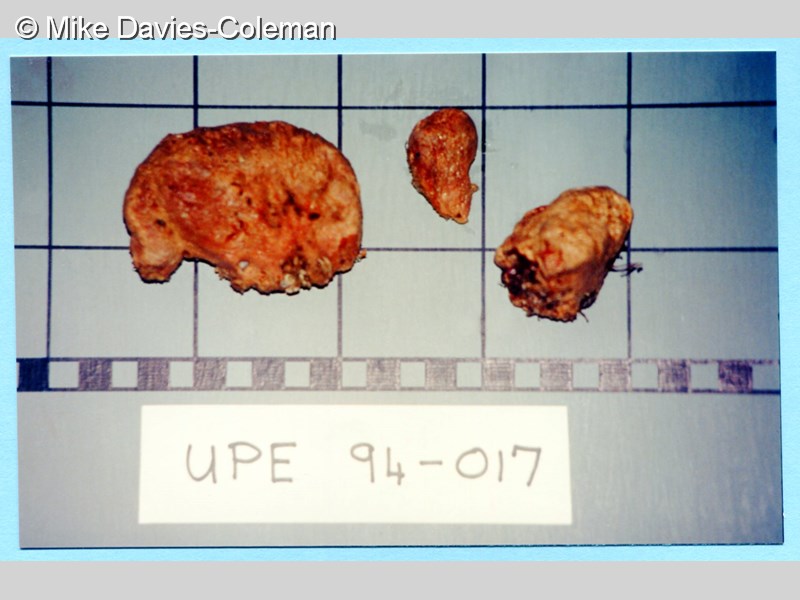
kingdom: Animalia
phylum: Porifera
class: Demospongiae
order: Poecilosclerida
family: Crellidae
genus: Crella
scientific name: Crella erecta
